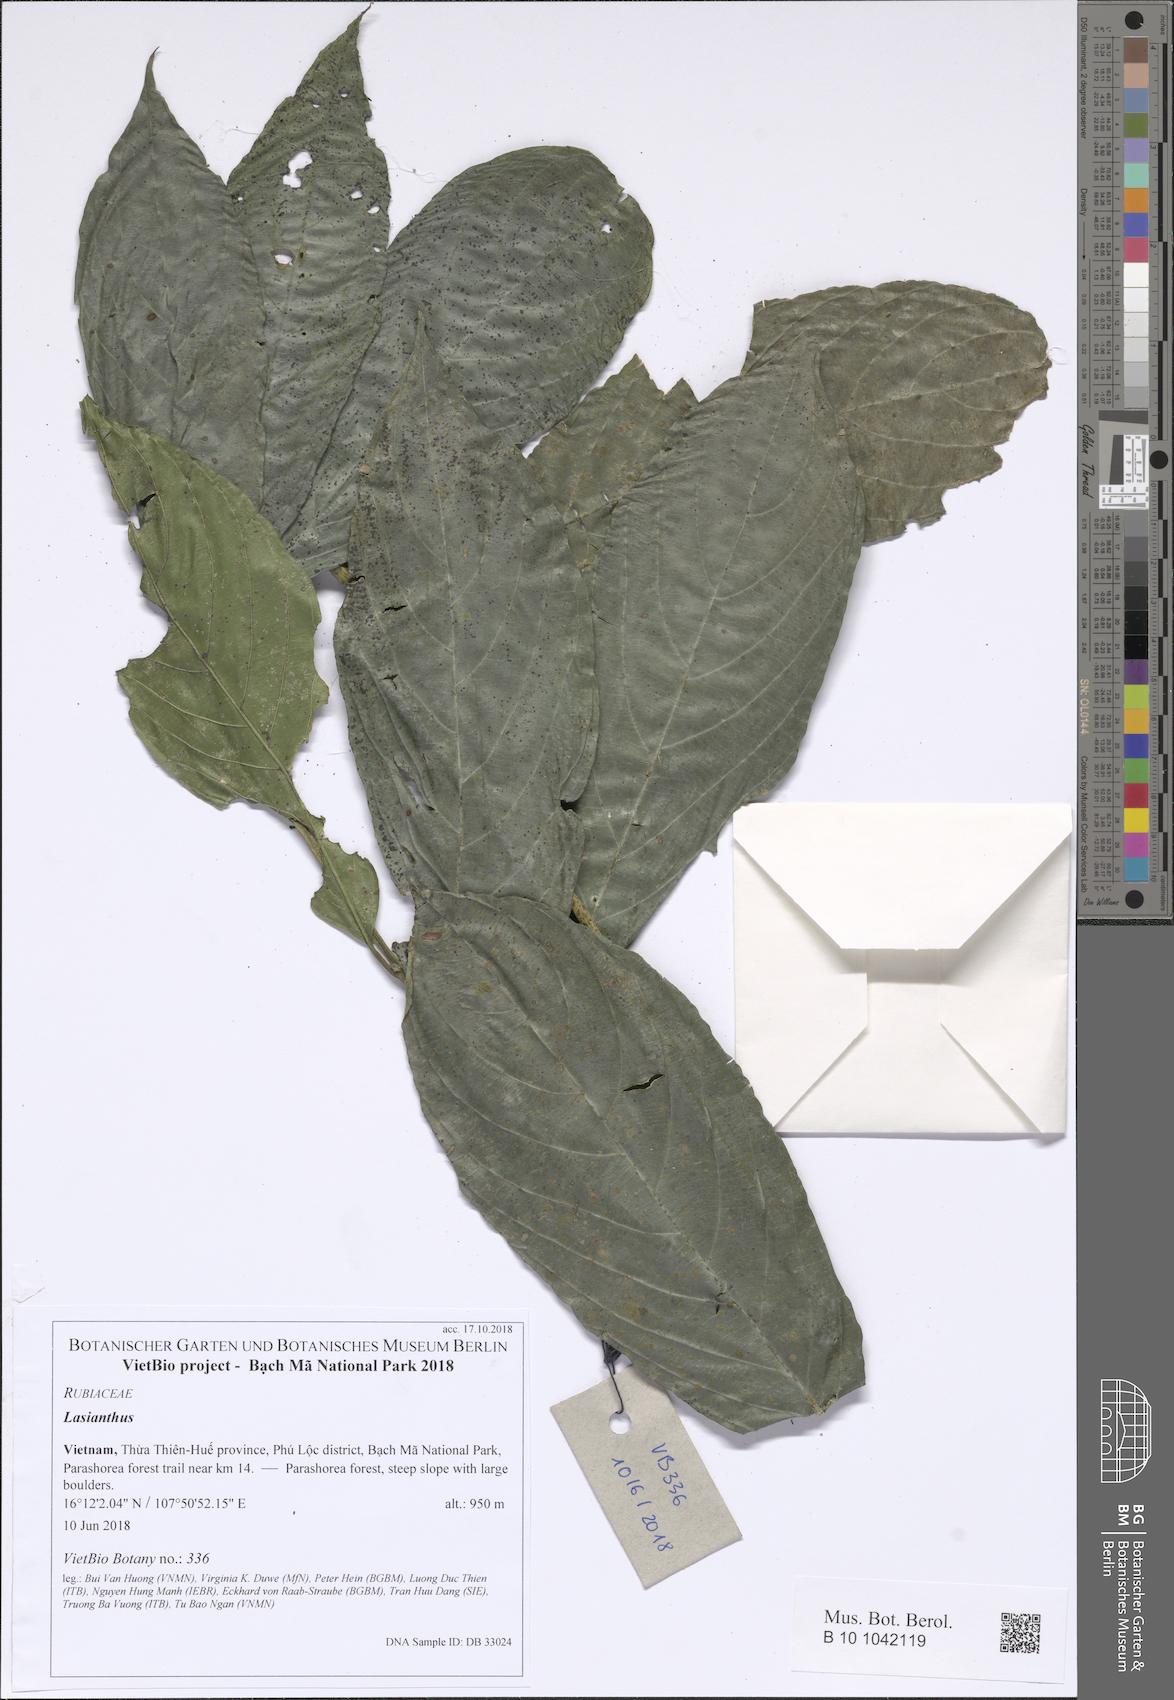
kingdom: Plantae
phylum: Tracheophyta
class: Magnoliopsida
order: Gentianales
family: Rubiaceae
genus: Lasianthus
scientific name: Lasianthus inodorus
